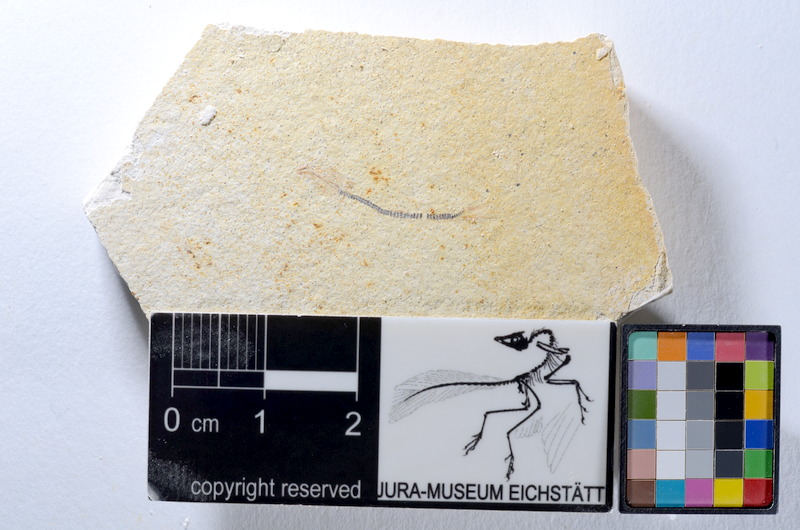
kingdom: Animalia
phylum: Chordata
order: Salmoniformes
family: Orthogonikleithridae
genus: Orthogonikleithrus
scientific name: Orthogonikleithrus hoelli
